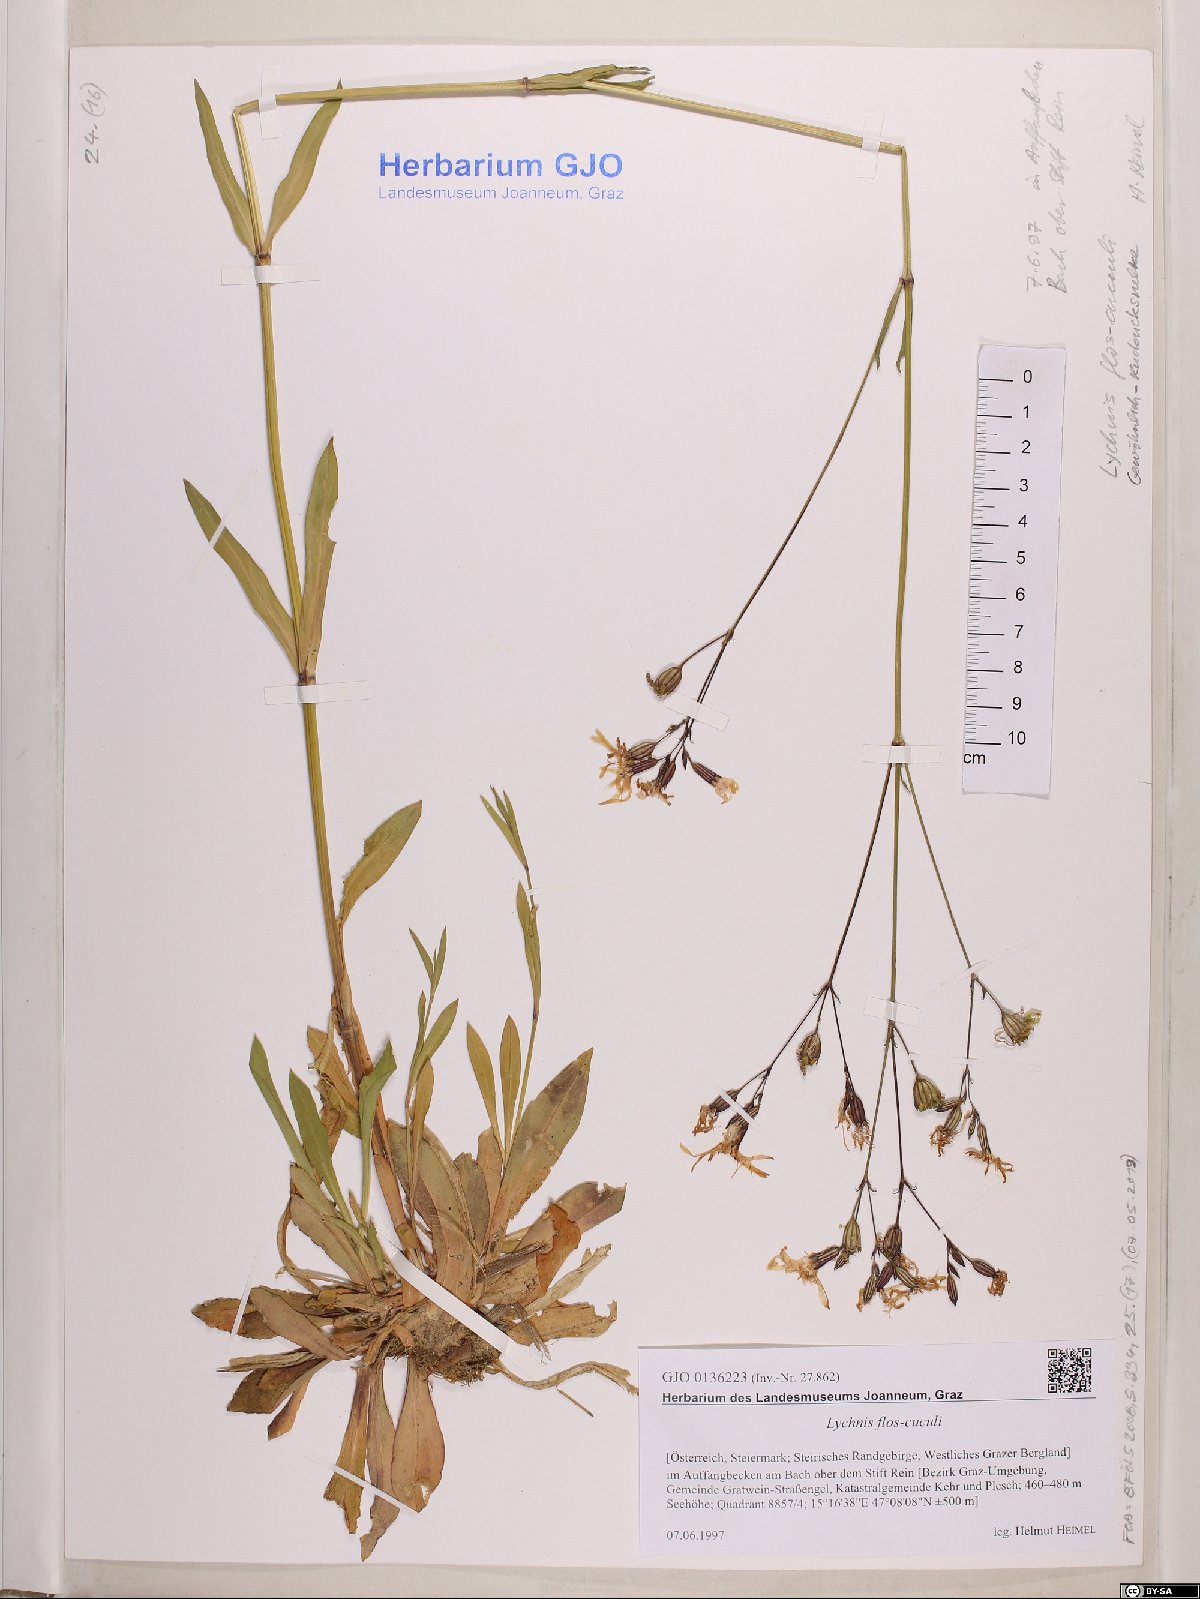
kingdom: Plantae
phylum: Tracheophyta
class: Magnoliopsida
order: Caryophyllales
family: Caryophyllaceae
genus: Silene
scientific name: Silene flos-cuculi
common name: Ragged-robin
